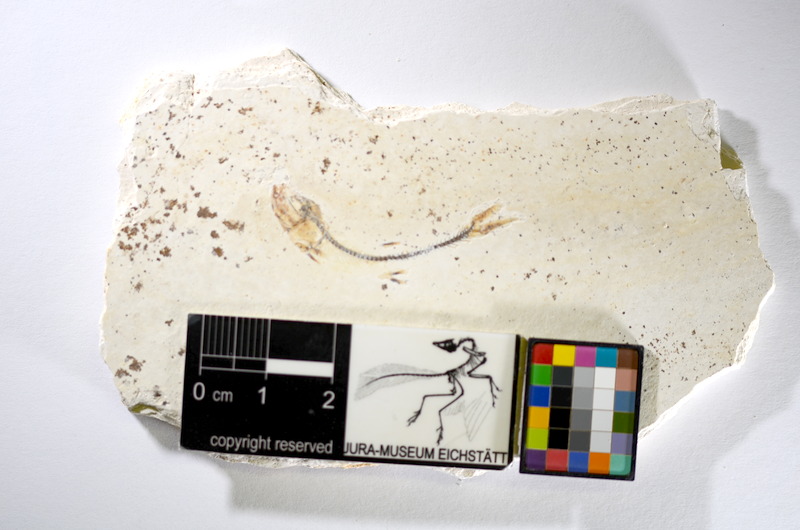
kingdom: Animalia
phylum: Chordata
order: Salmoniformes
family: Orthogonikleithridae
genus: Orthogonikleithrus
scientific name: Orthogonikleithrus hoelli
